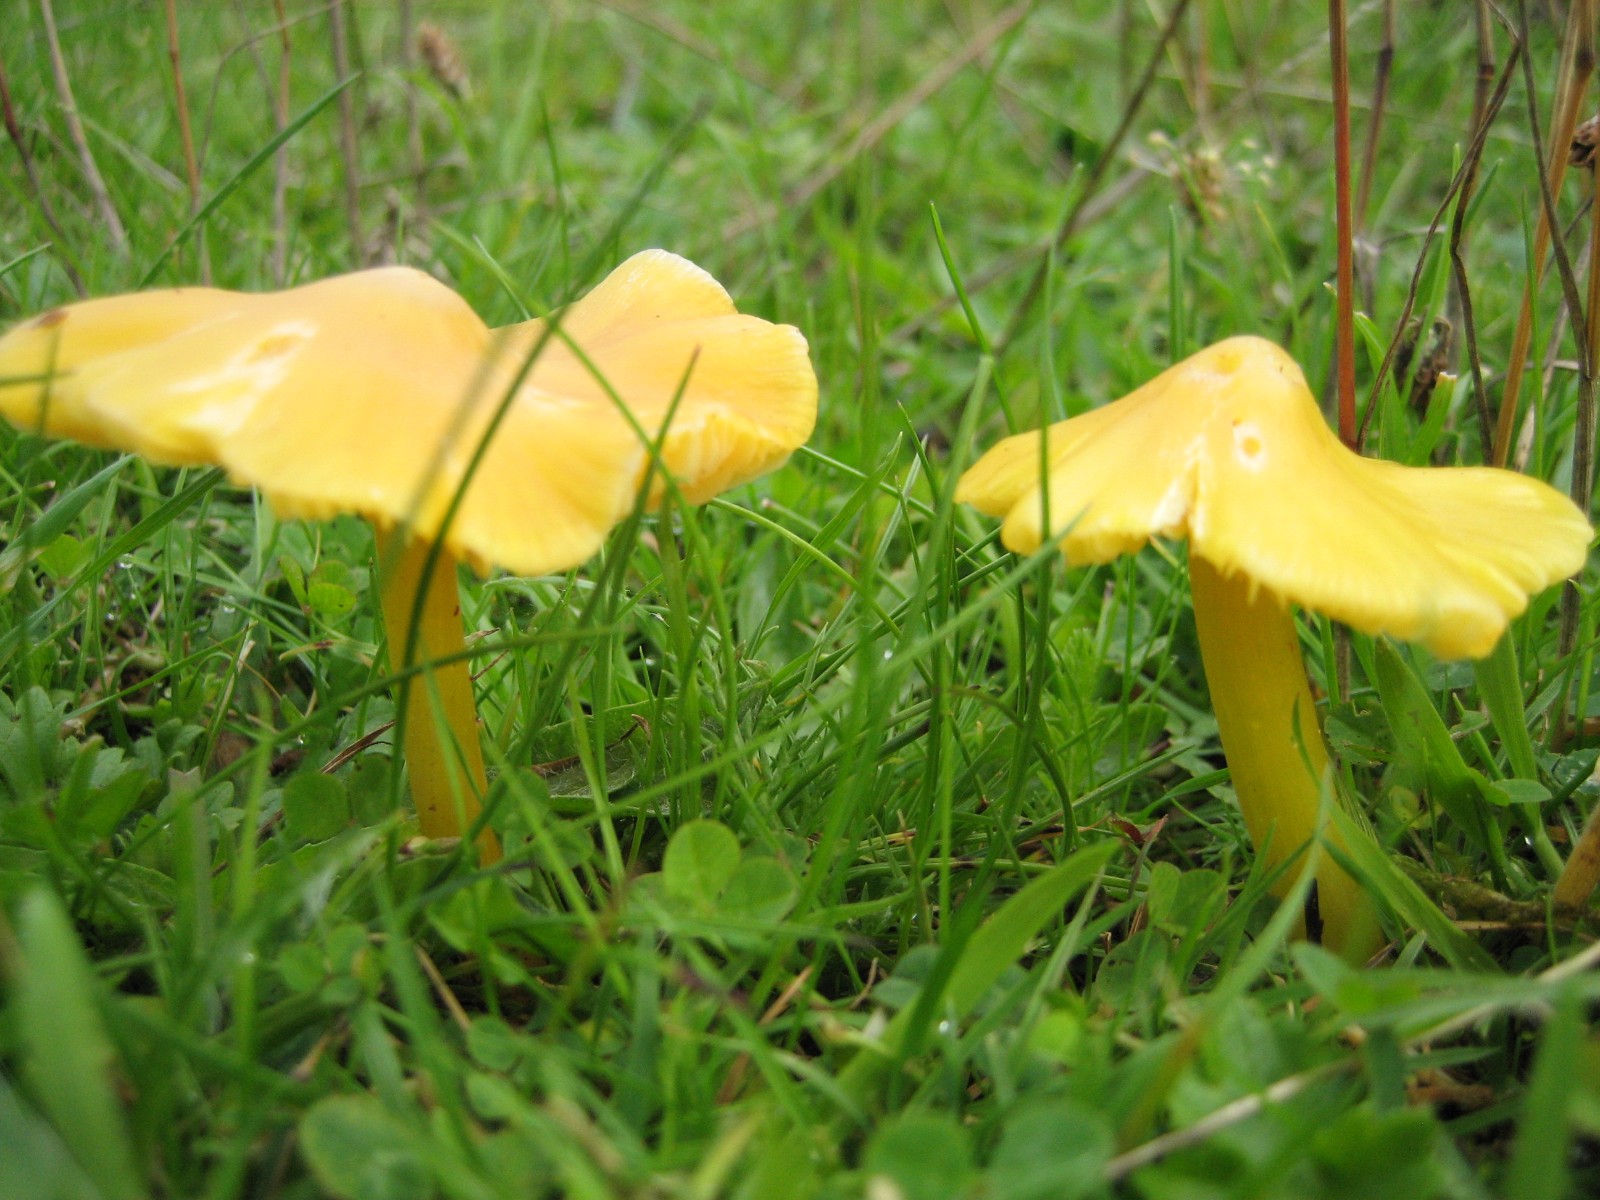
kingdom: Fungi
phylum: Basidiomycota
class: Agaricomycetes
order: Agaricales
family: Hygrophoraceae
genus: Hygrocybe
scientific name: Hygrocybe
